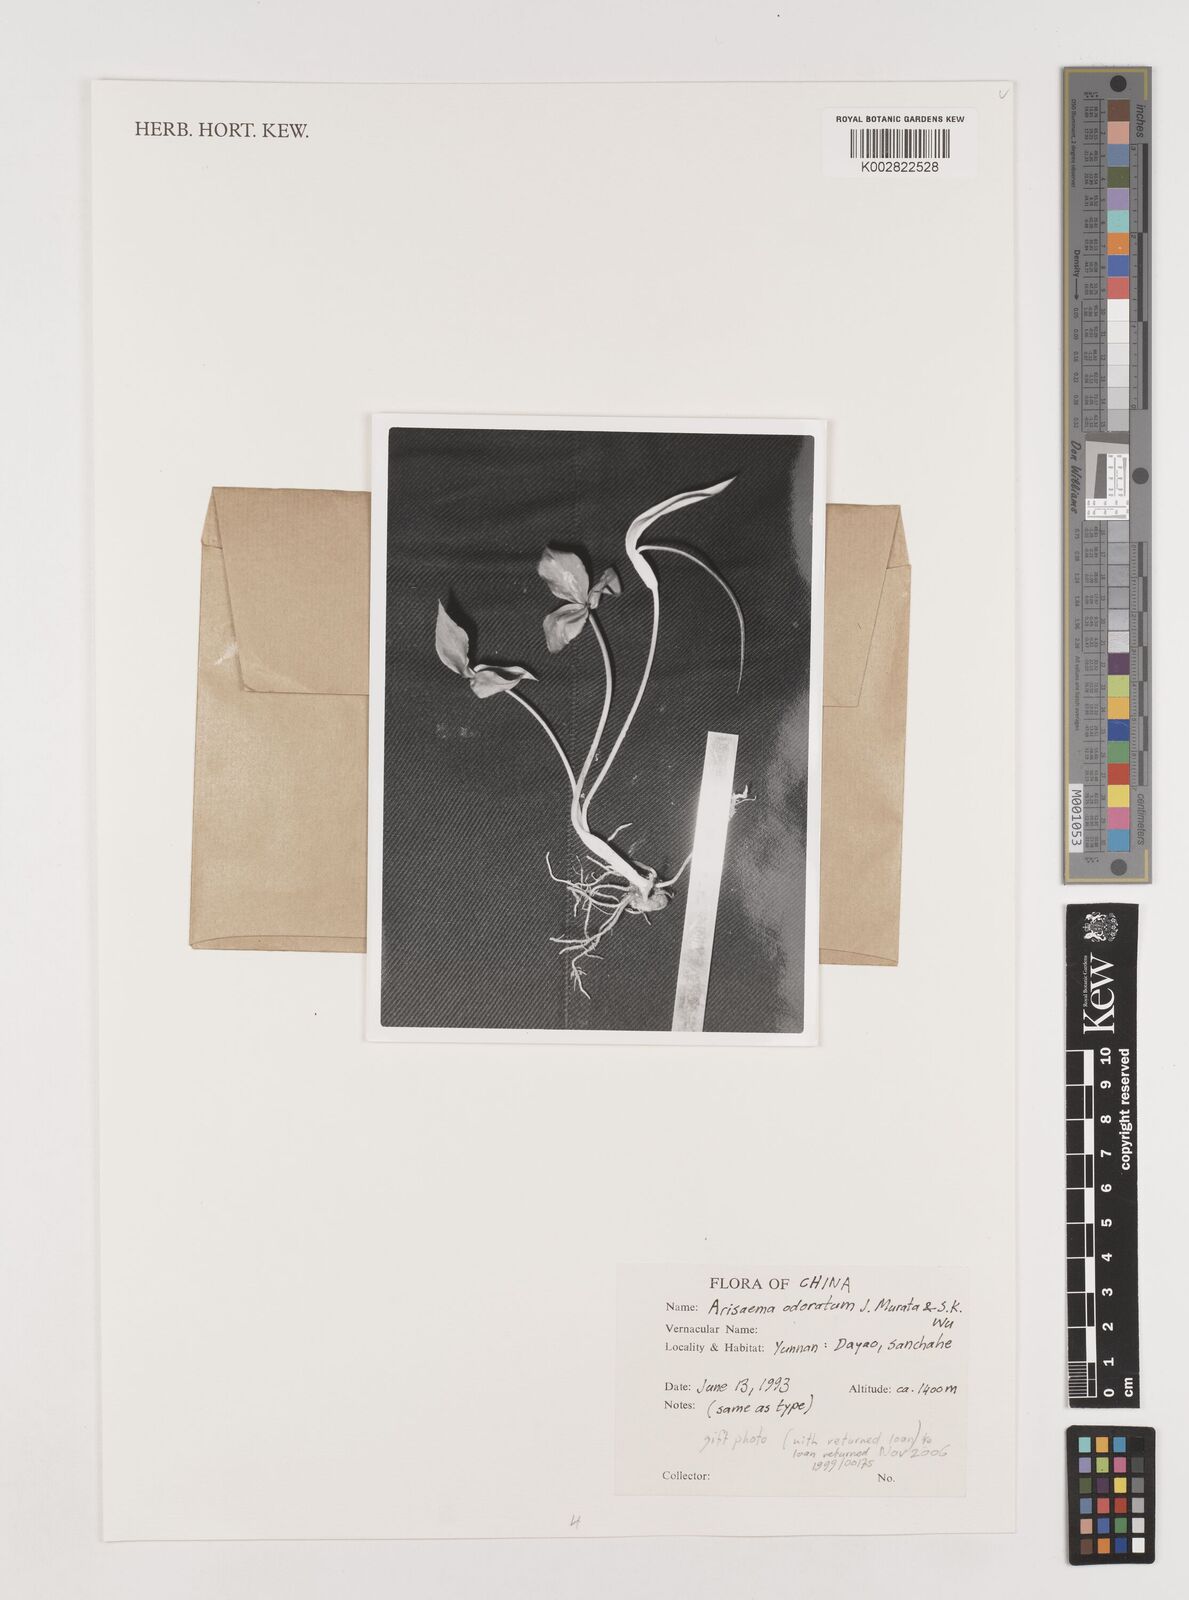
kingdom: Plantae
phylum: Tracheophyta
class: Liliopsida
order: Alismatales
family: Araceae
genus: Arisaema
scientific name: Arisaema odoratum
